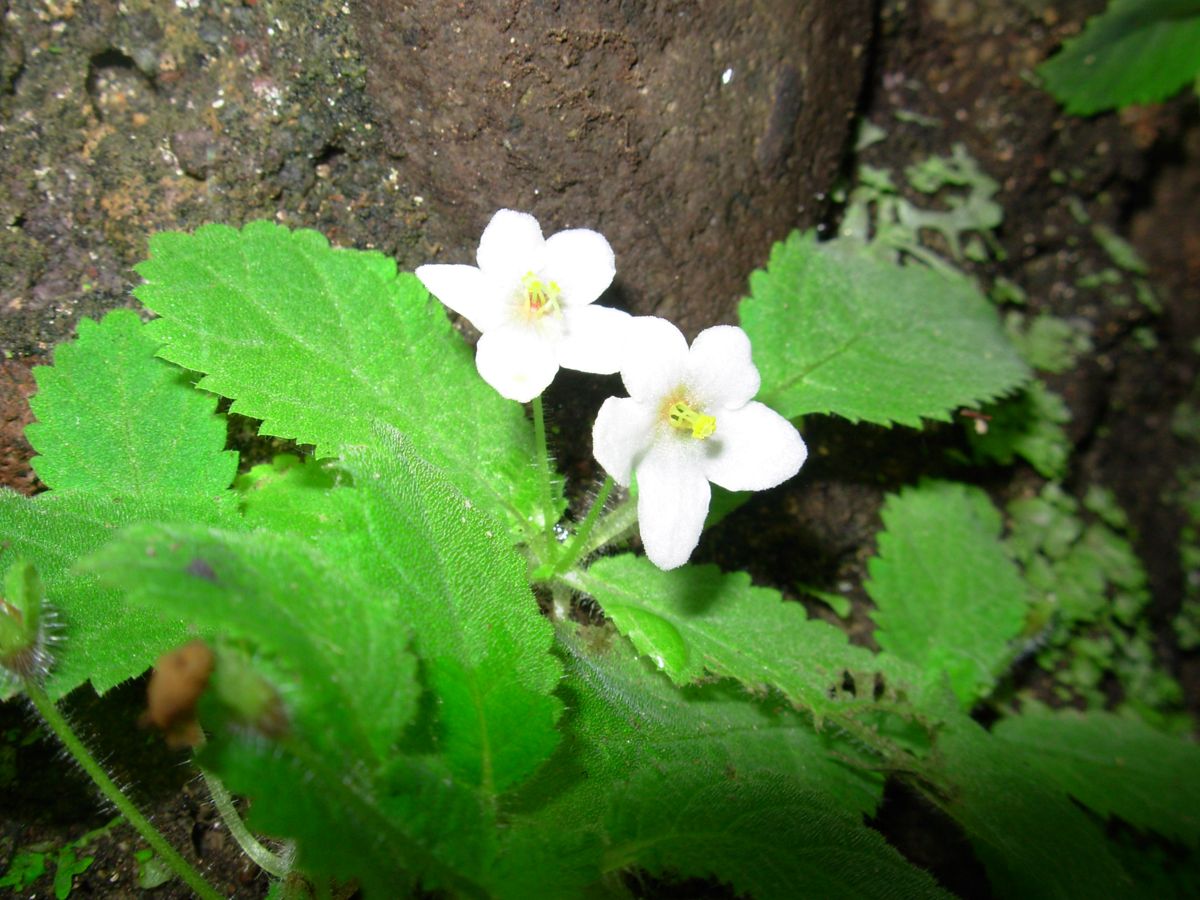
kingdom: Plantae
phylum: Tracheophyta
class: Magnoliopsida
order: Lamiales
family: Gesneriaceae
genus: Amalophyllon
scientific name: Amalophyllon repens
